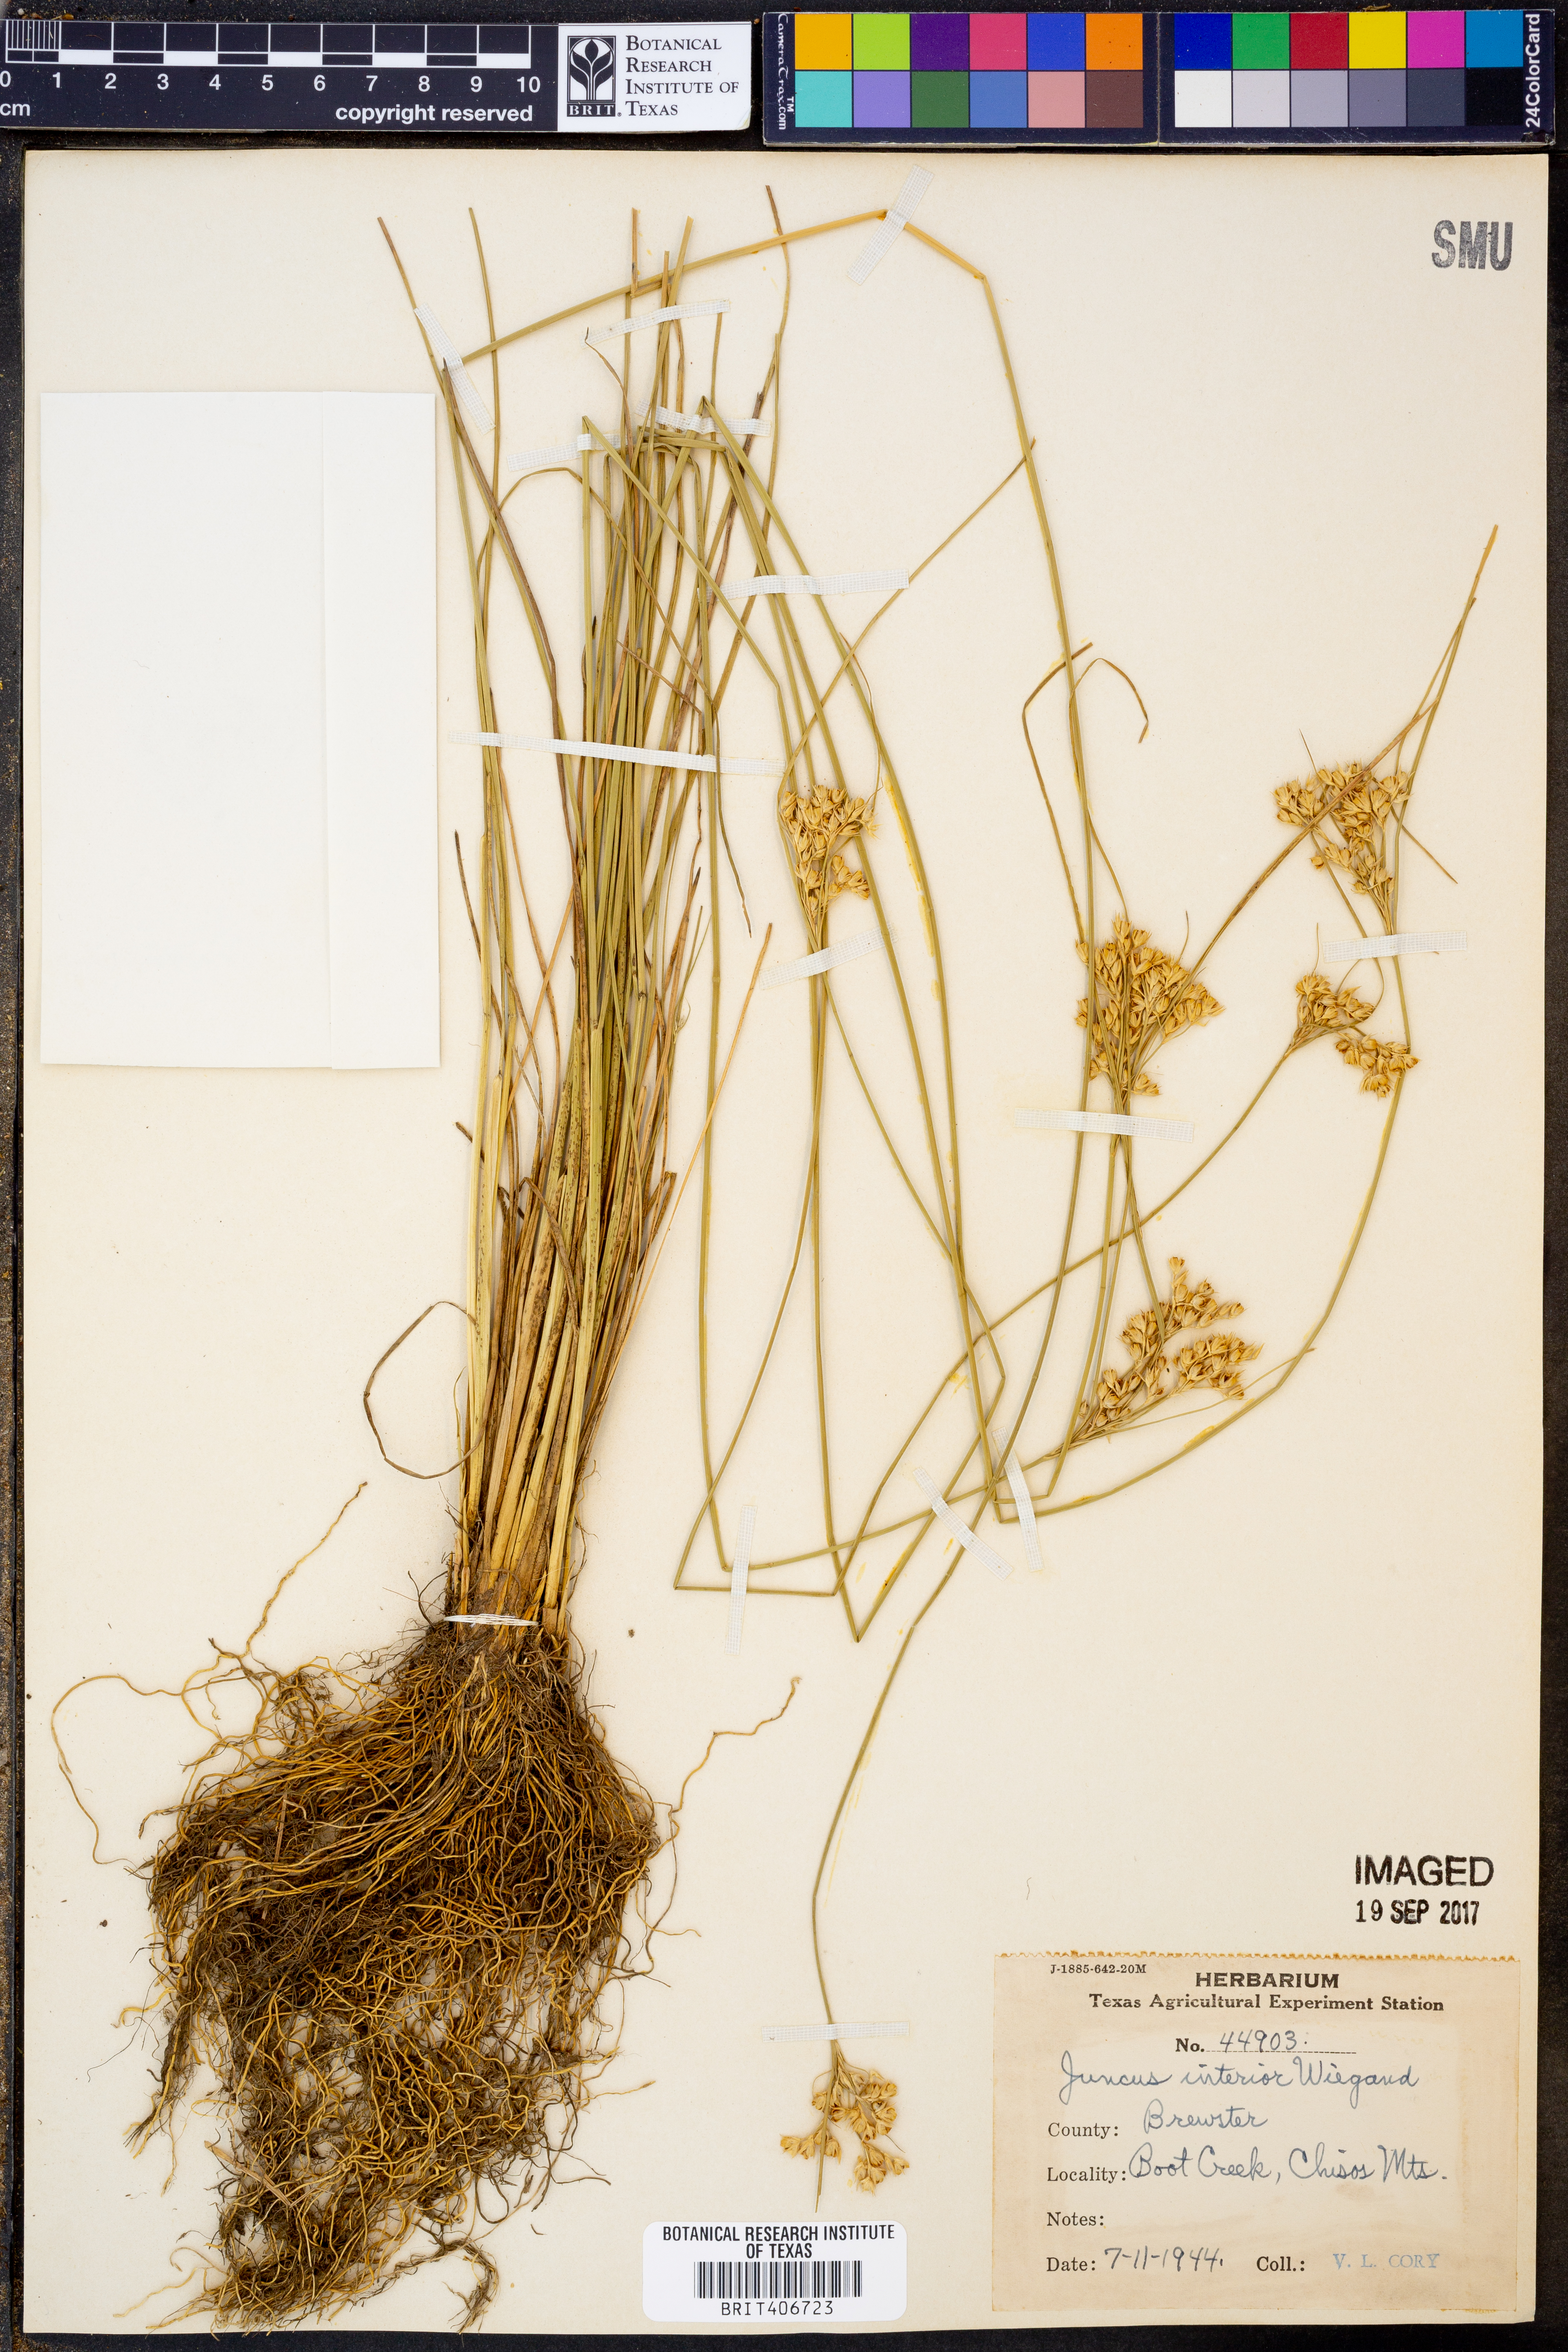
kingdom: Plantae
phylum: Tracheophyta
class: Liliopsida
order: Poales
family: Juncaceae
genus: Juncus
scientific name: Juncus interior
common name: Interior rush
